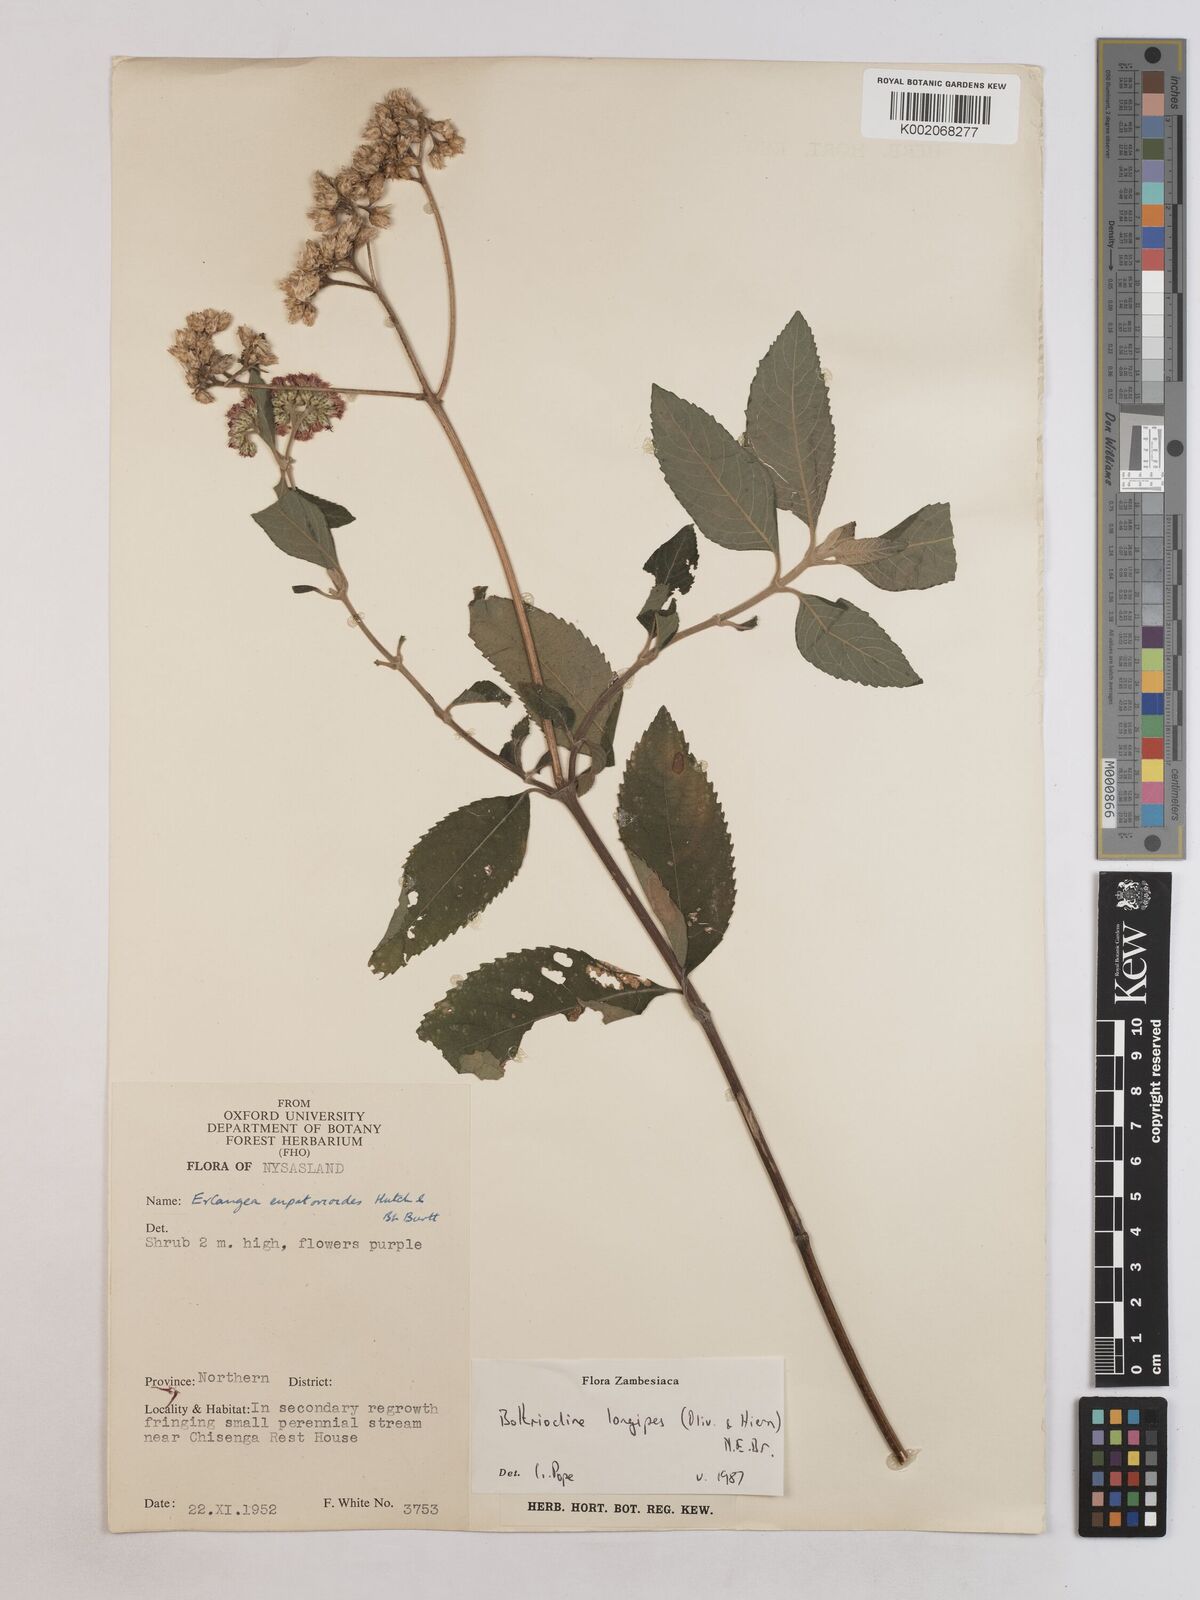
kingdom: Plantae
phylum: Tracheophyta
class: Magnoliopsida
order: Asterales
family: Asteraceae
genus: Bothriocline
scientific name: Bothriocline longipes
